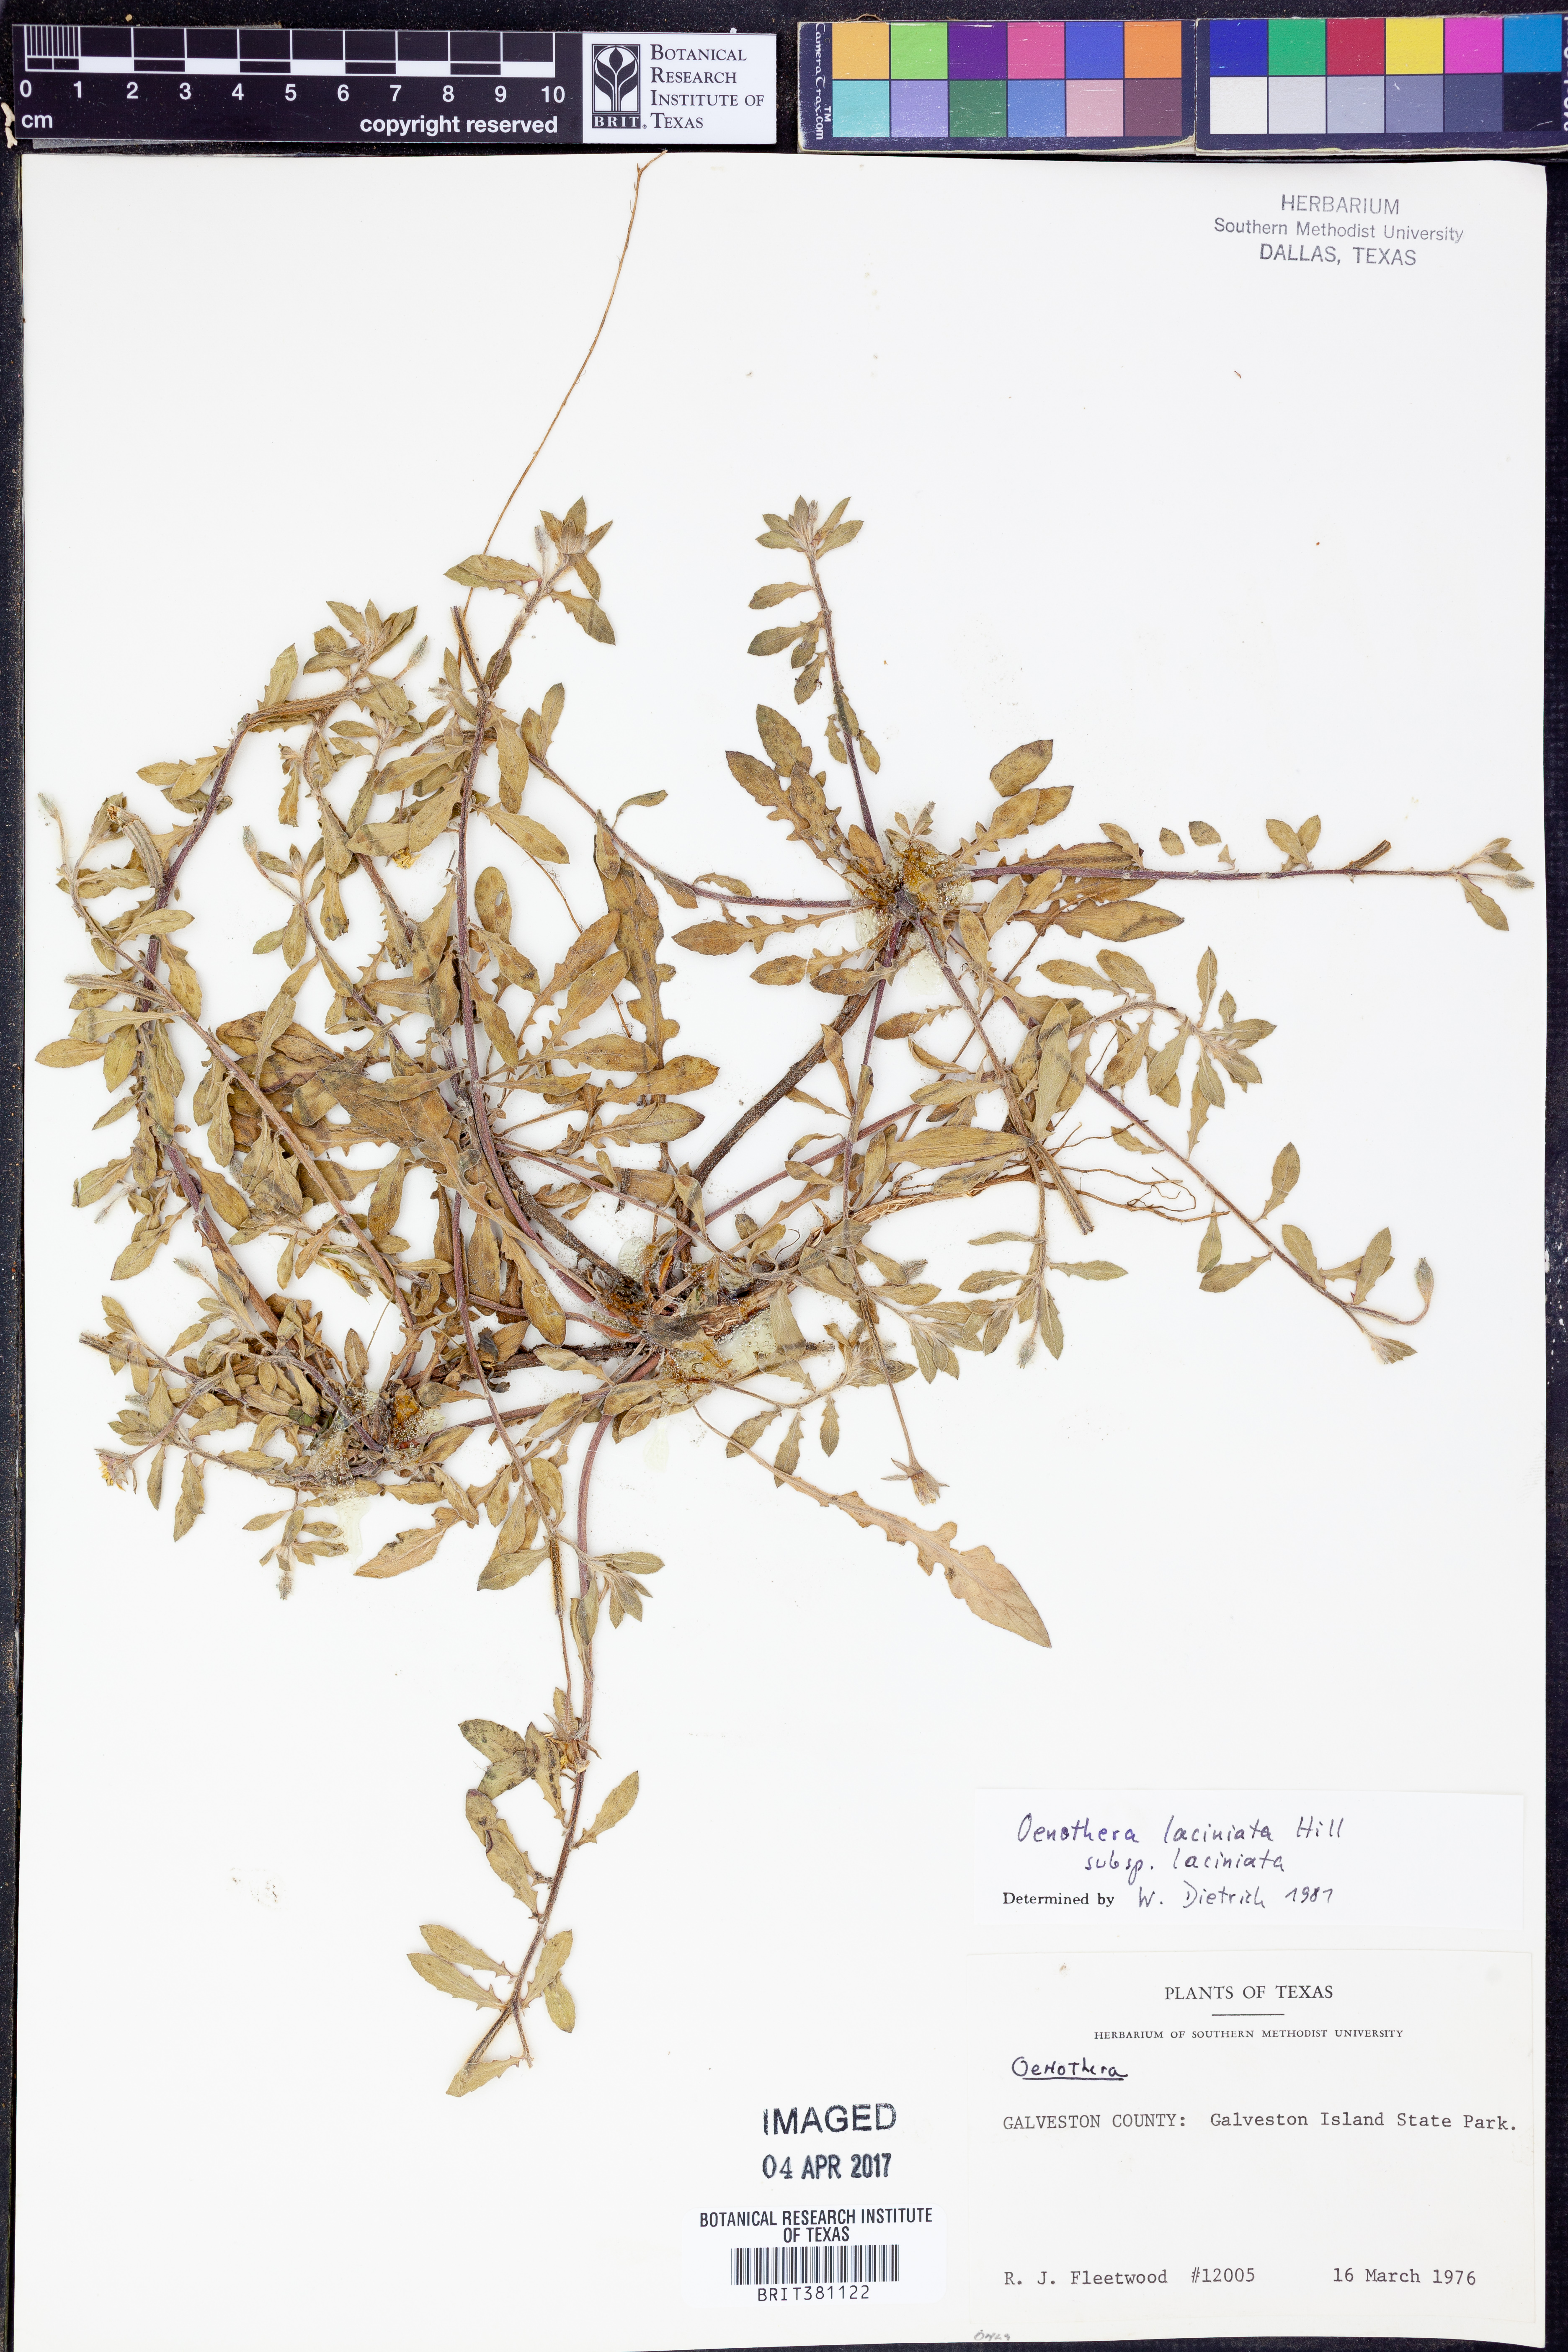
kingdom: Plantae
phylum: Tracheophyta
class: Magnoliopsida
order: Myrtales
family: Onagraceae
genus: Oenothera
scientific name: Oenothera laciniata
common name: Cut-leaved evening-primrose
